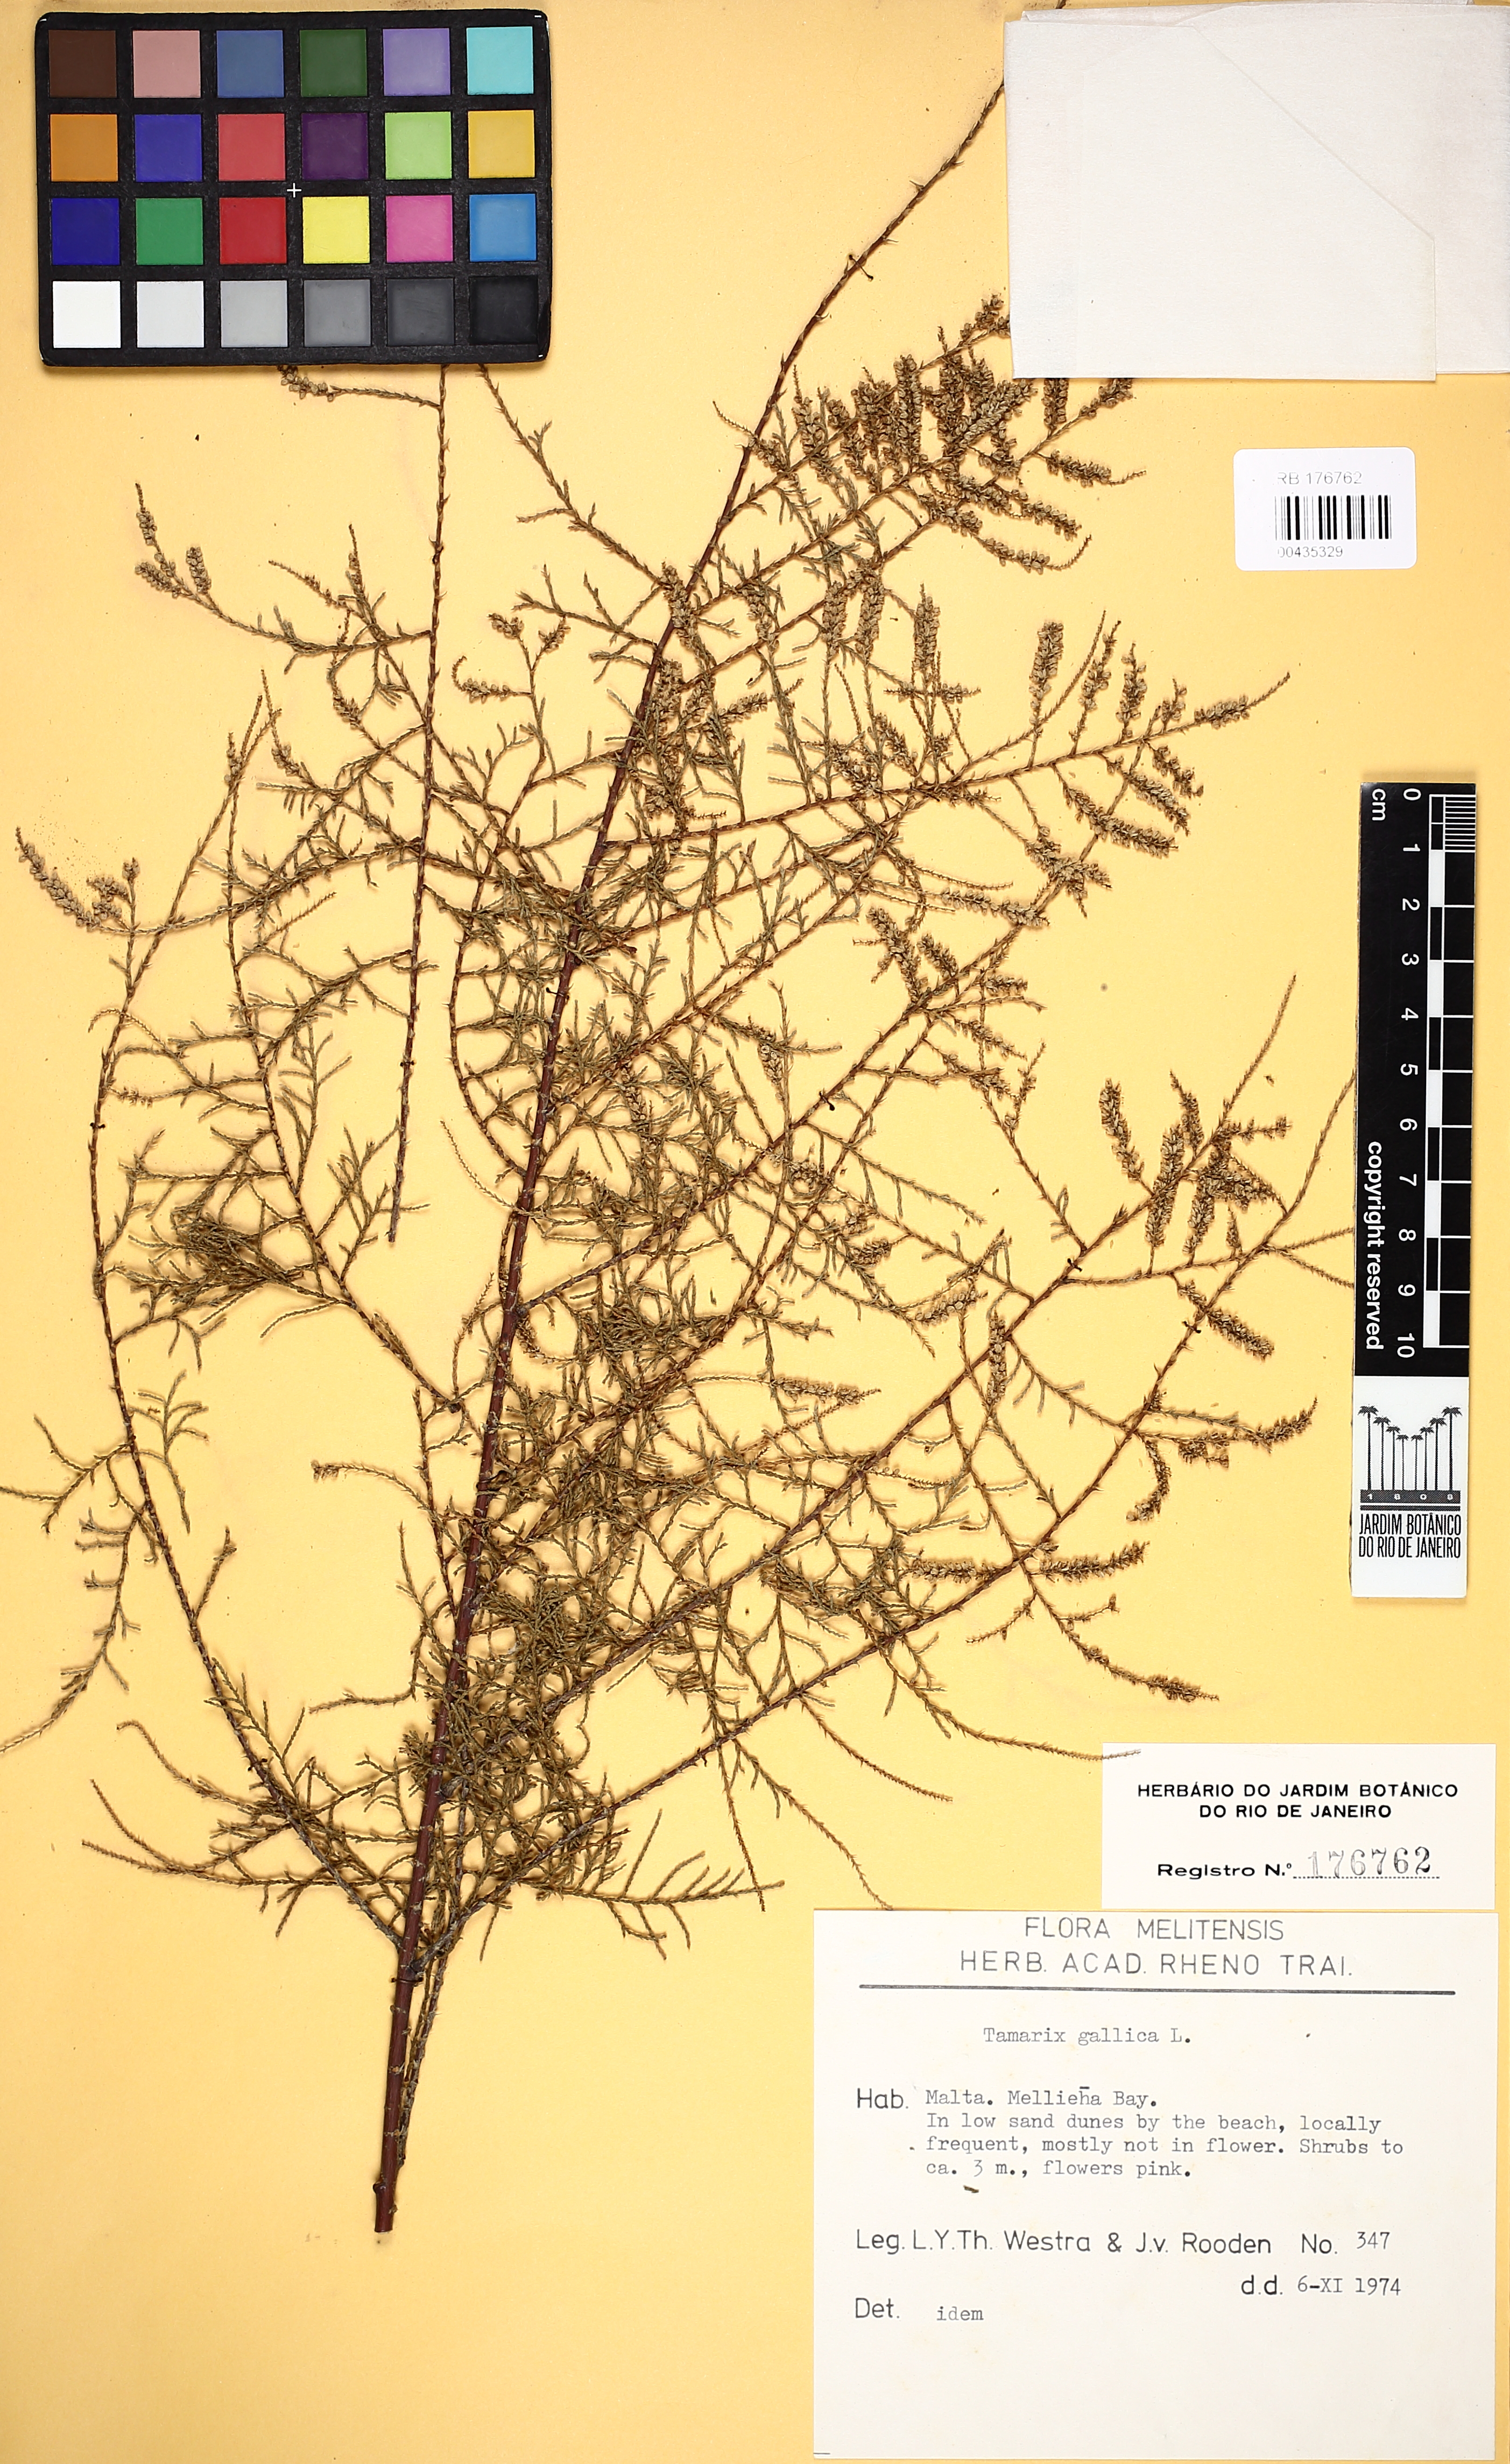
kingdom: Plantae
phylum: Tracheophyta
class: Magnoliopsida
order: Caryophyllales
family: Tamaricaceae
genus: Tamarix
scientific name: Tamarix gallica
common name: Tamarisk
